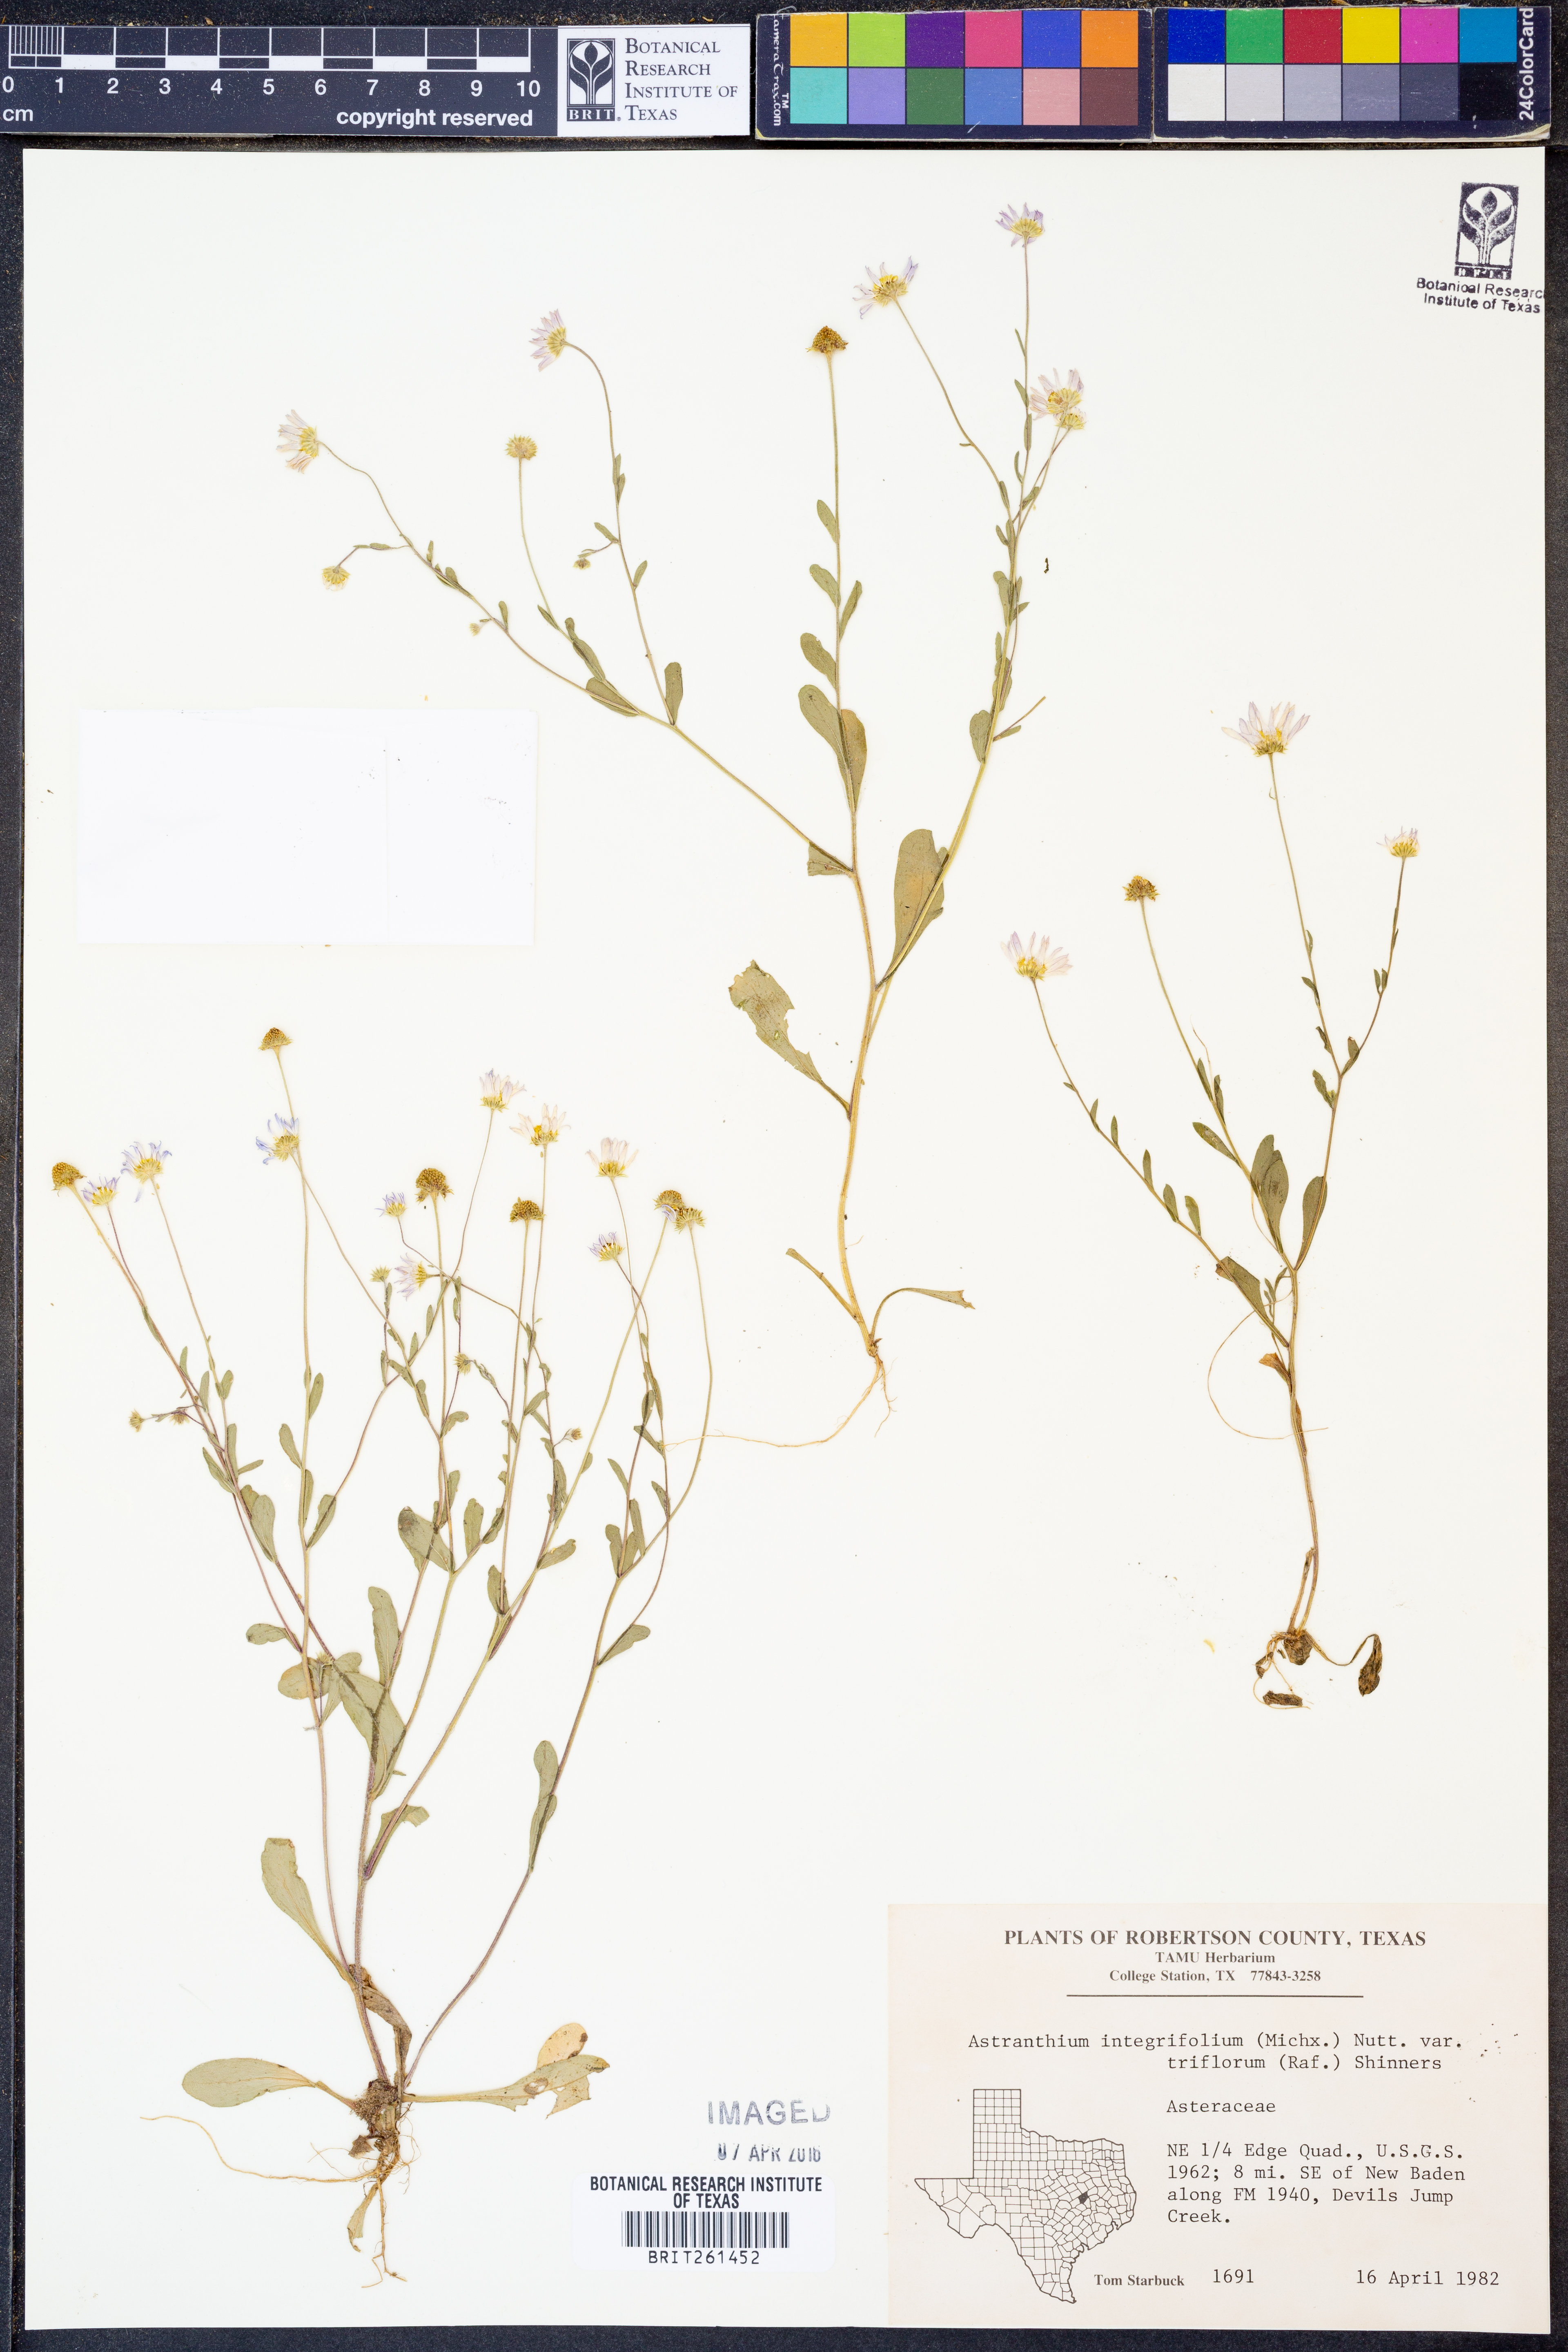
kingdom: Plantae
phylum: Tracheophyta
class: Magnoliopsida
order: Asterales
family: Asteraceae
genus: Astranthium
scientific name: Astranthium ciliatum
